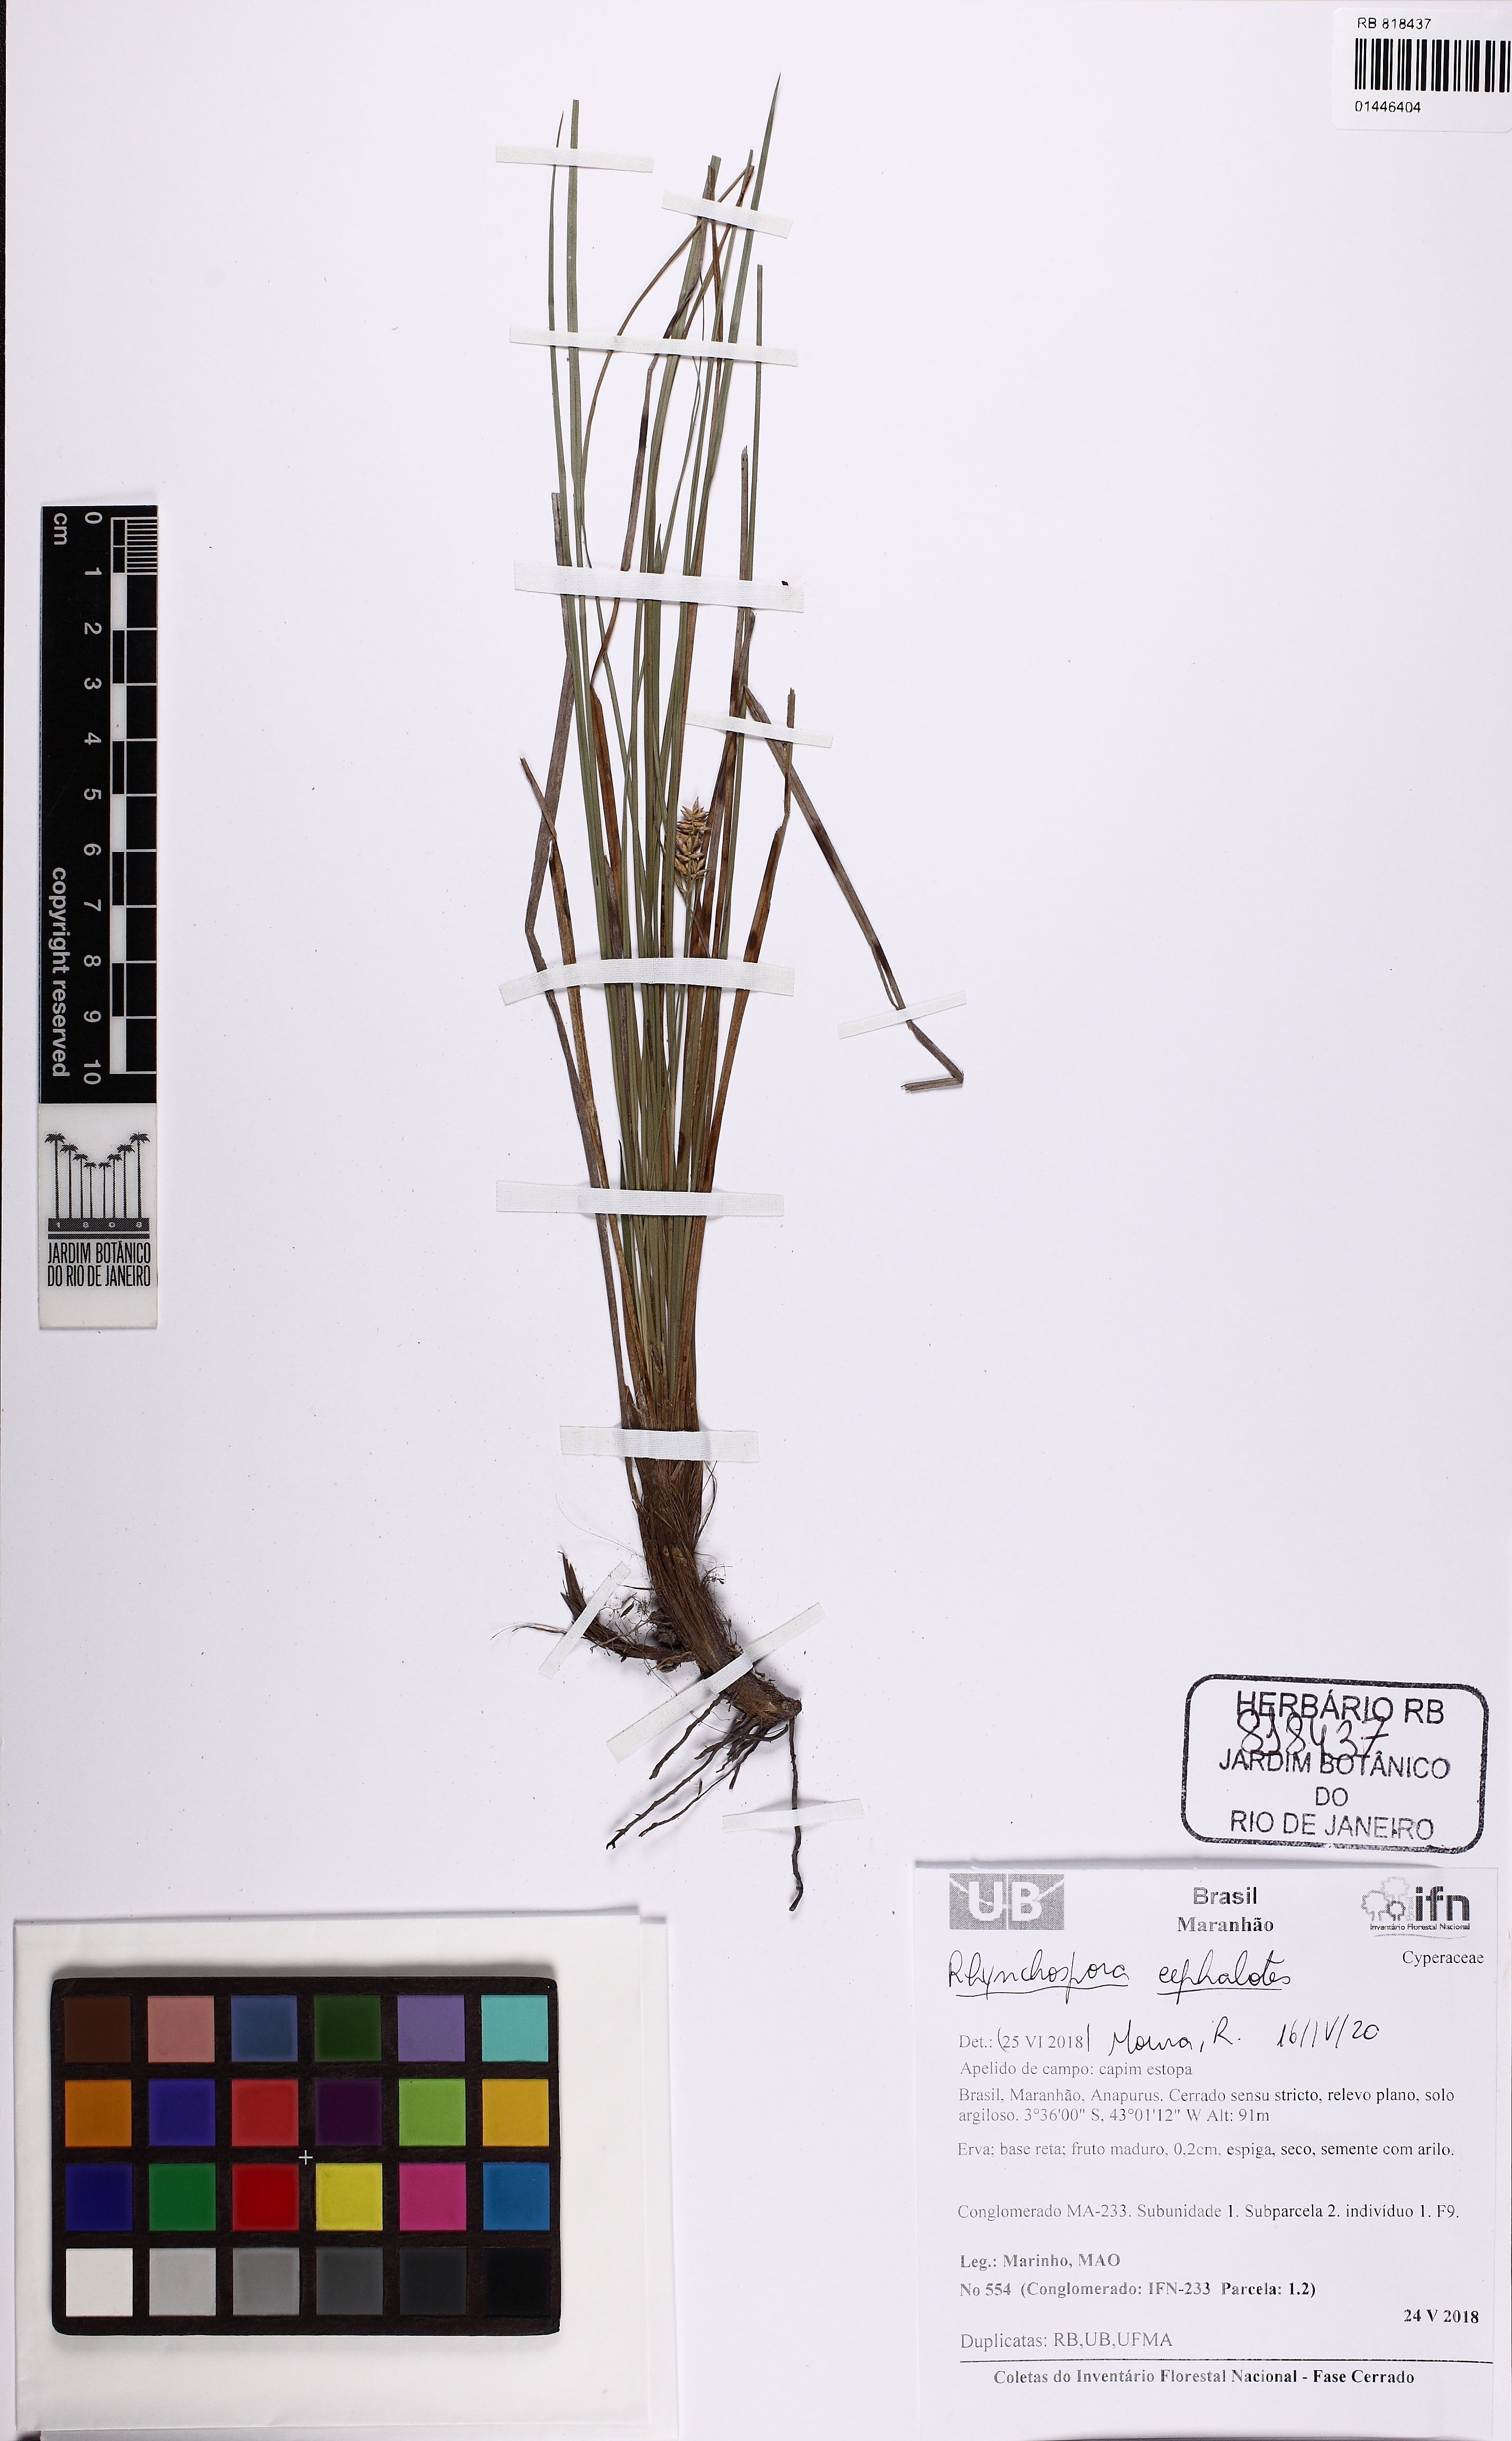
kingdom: Plantae
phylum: Tracheophyta
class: Liliopsida
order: Poales
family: Cyperaceae
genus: Rhynchospora
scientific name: Rhynchospora cephalotes
